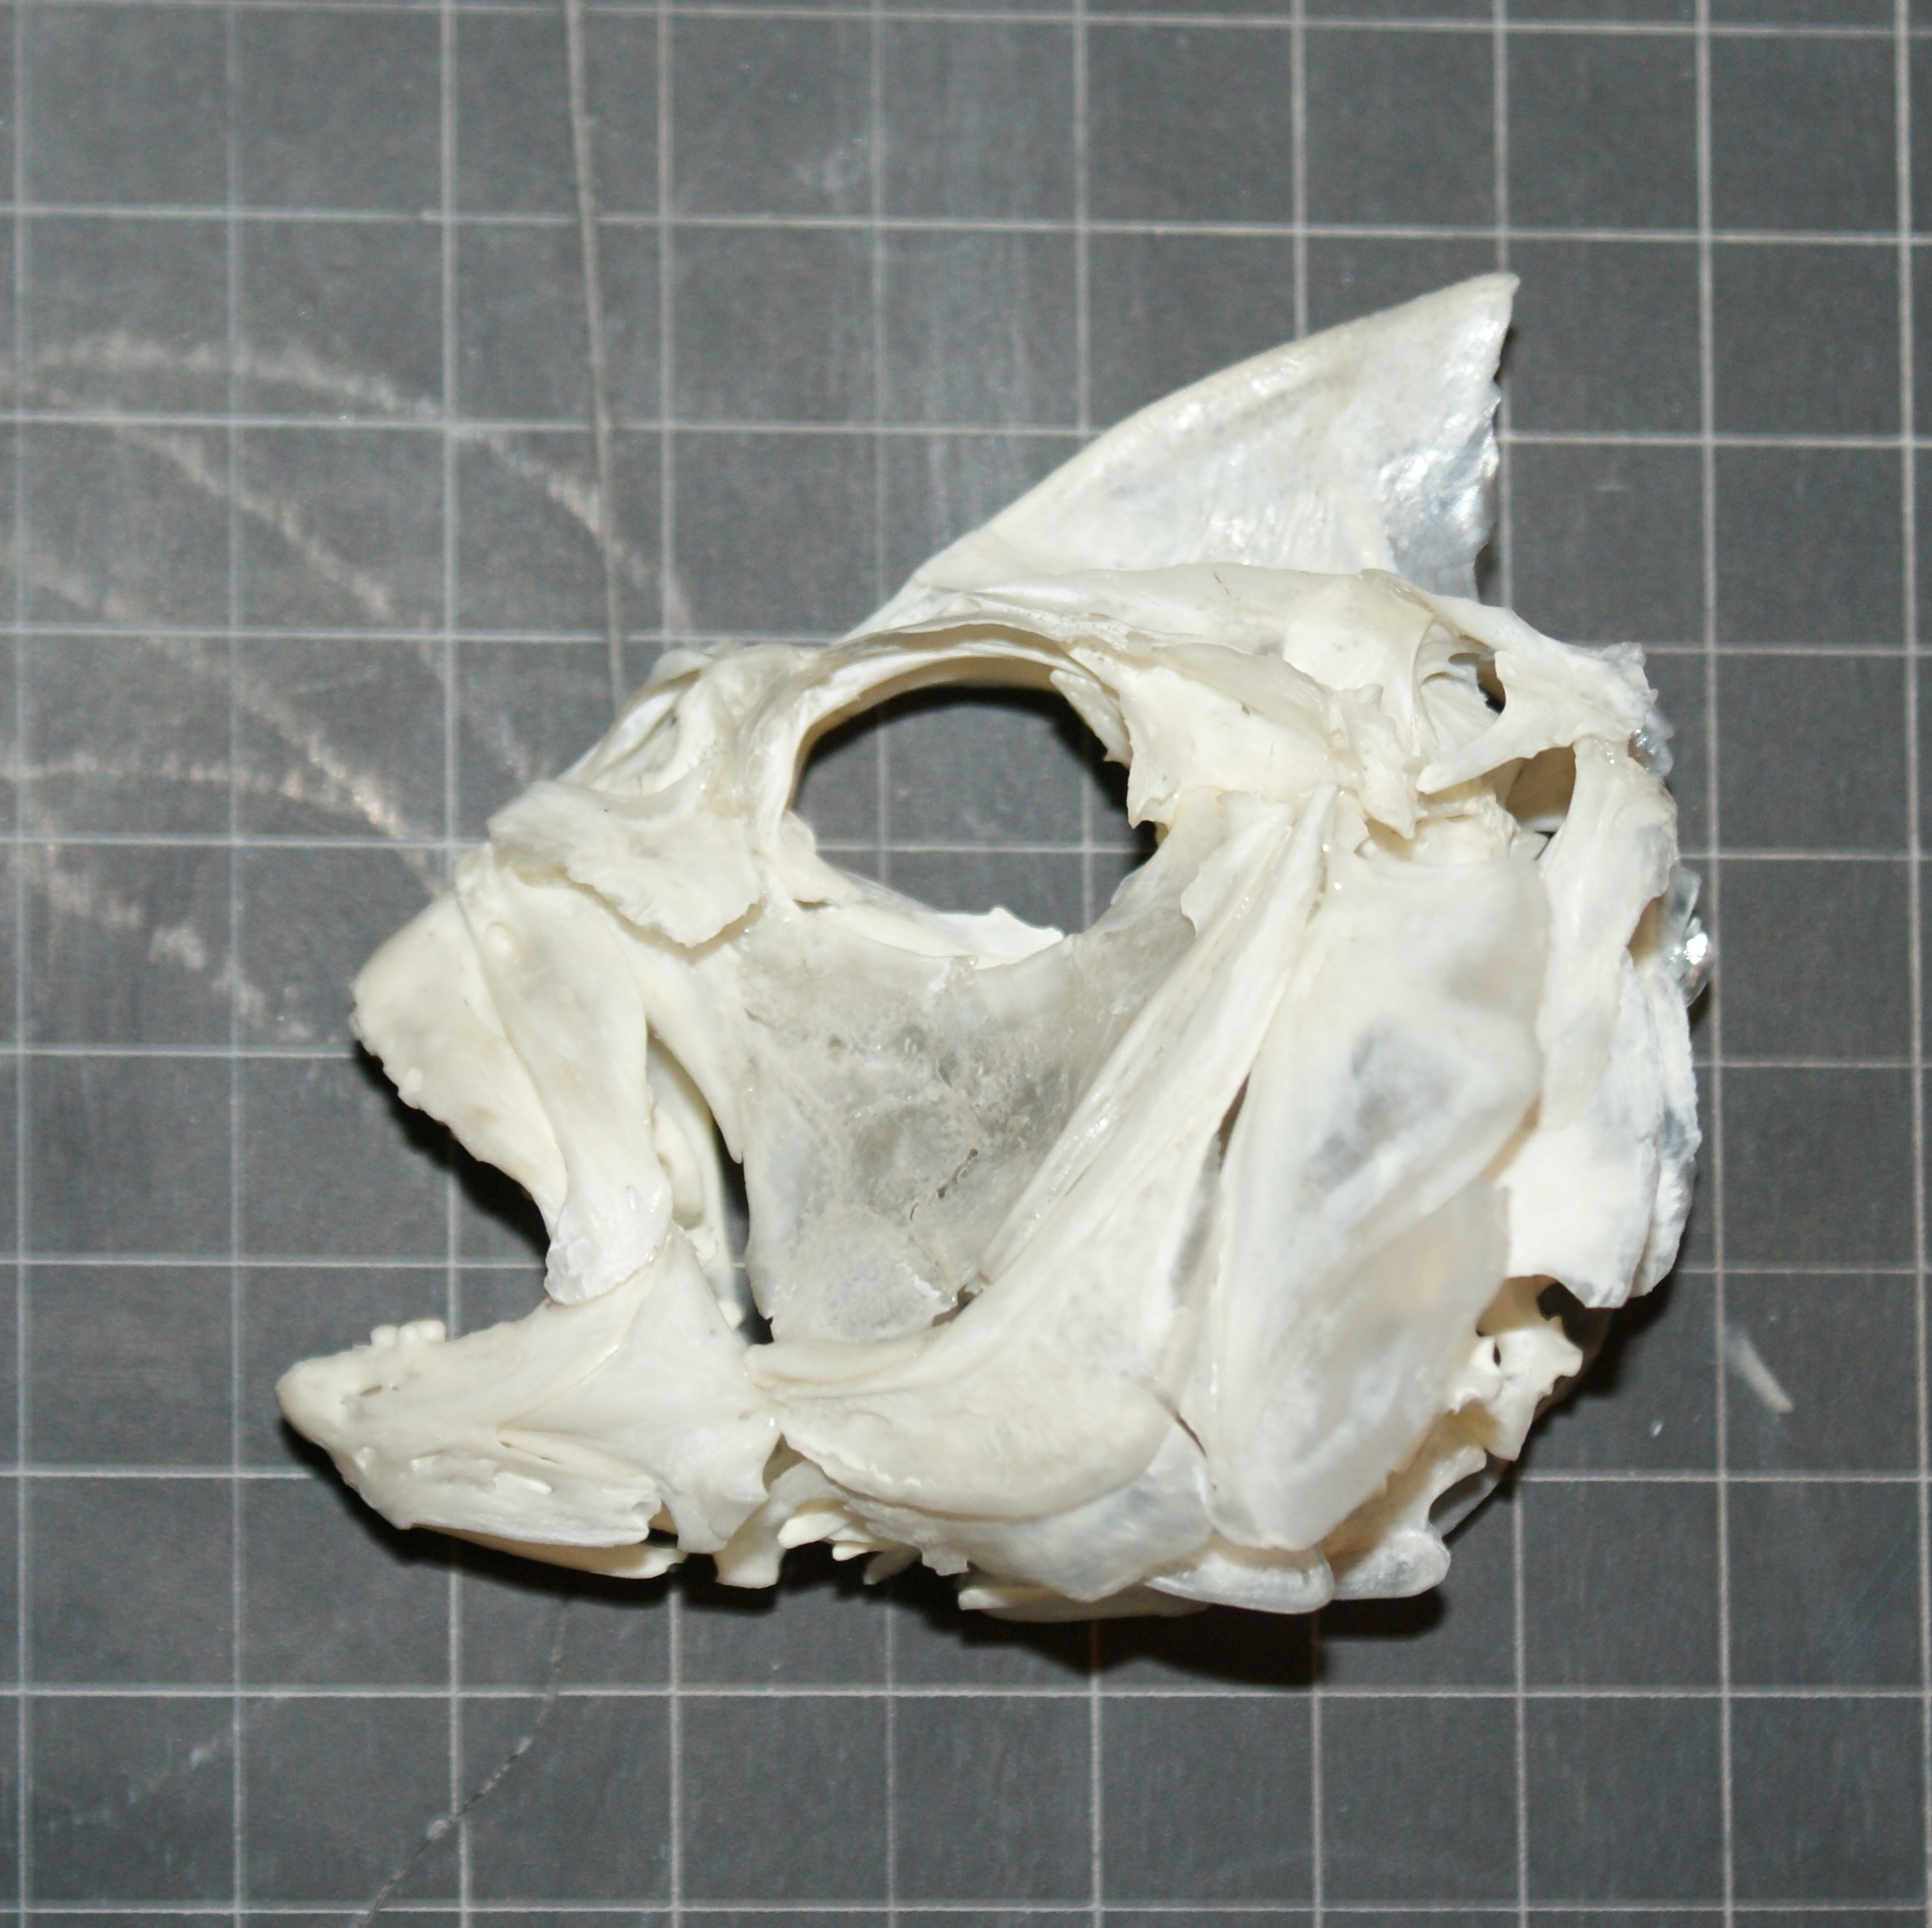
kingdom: Animalia
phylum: Chordata
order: Perciformes
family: Sparidae
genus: Sparus
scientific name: Sparus aurata
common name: Gilthead
